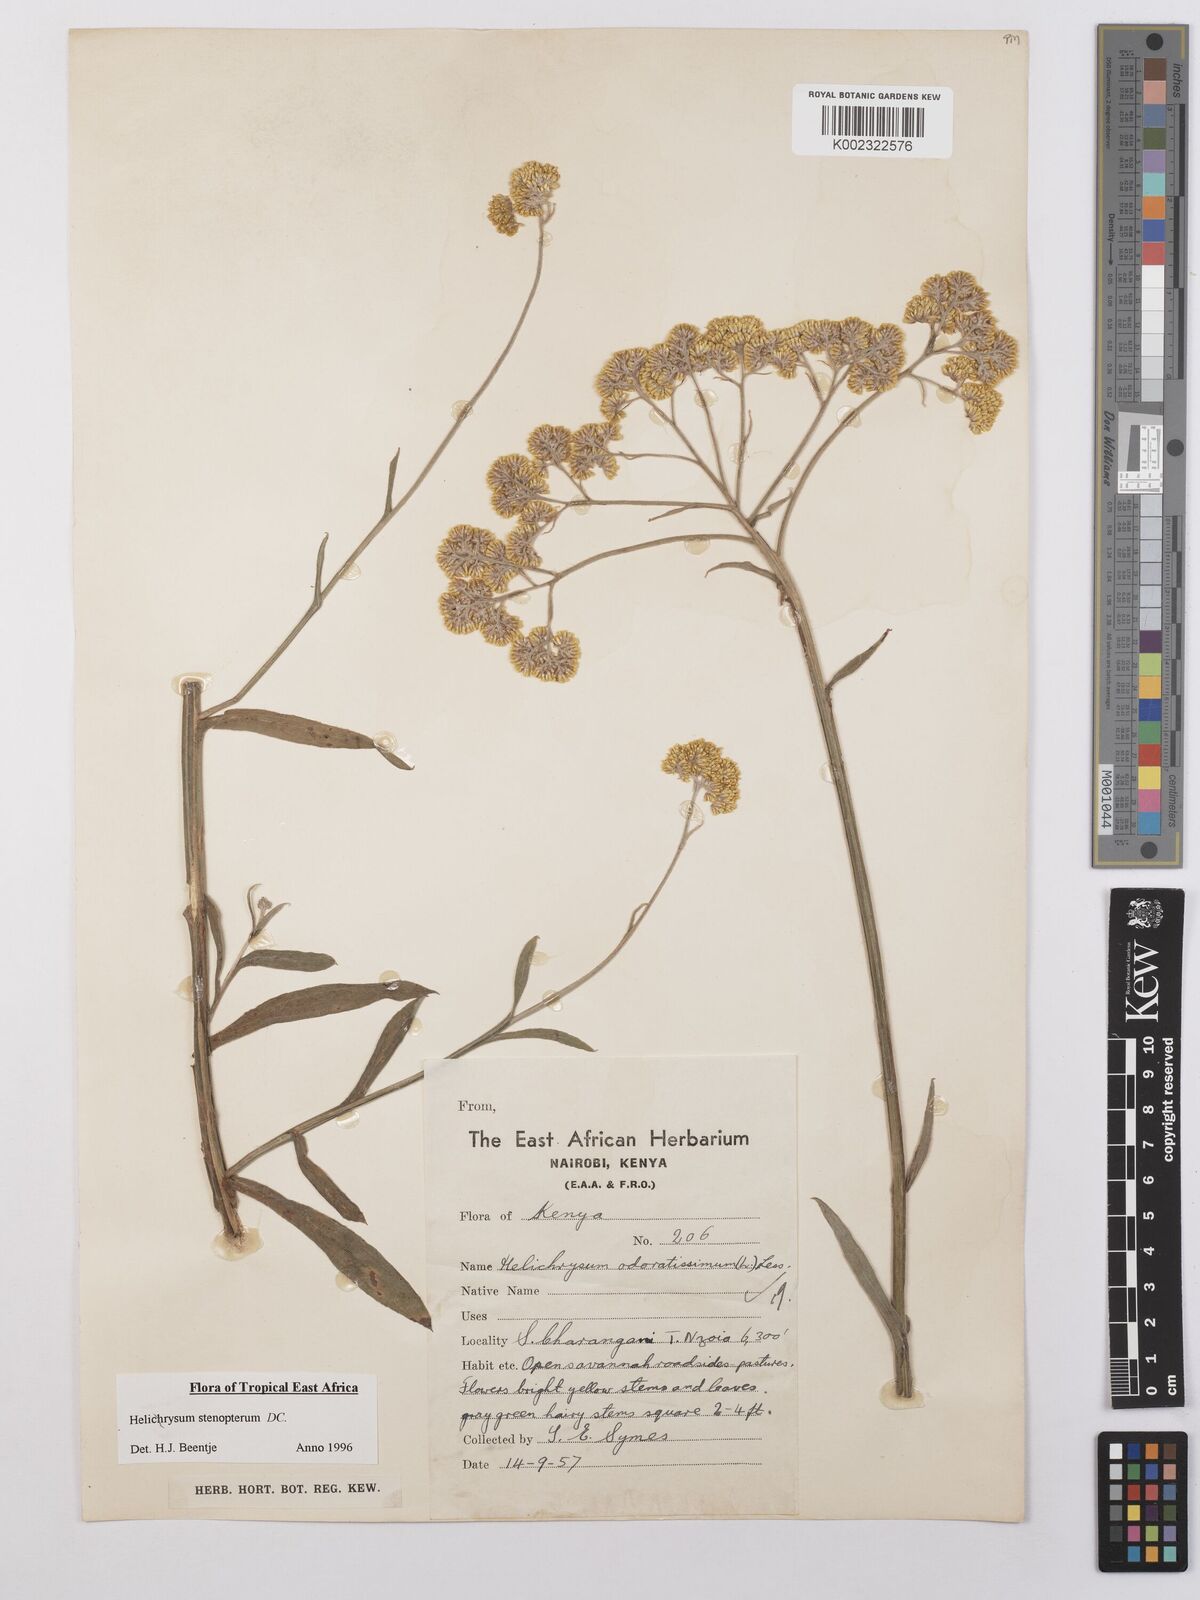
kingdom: Plantae
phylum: Tracheophyta
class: Magnoliopsida
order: Asterales
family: Asteraceae
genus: Helichrysum
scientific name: Helichrysum stenopterum
